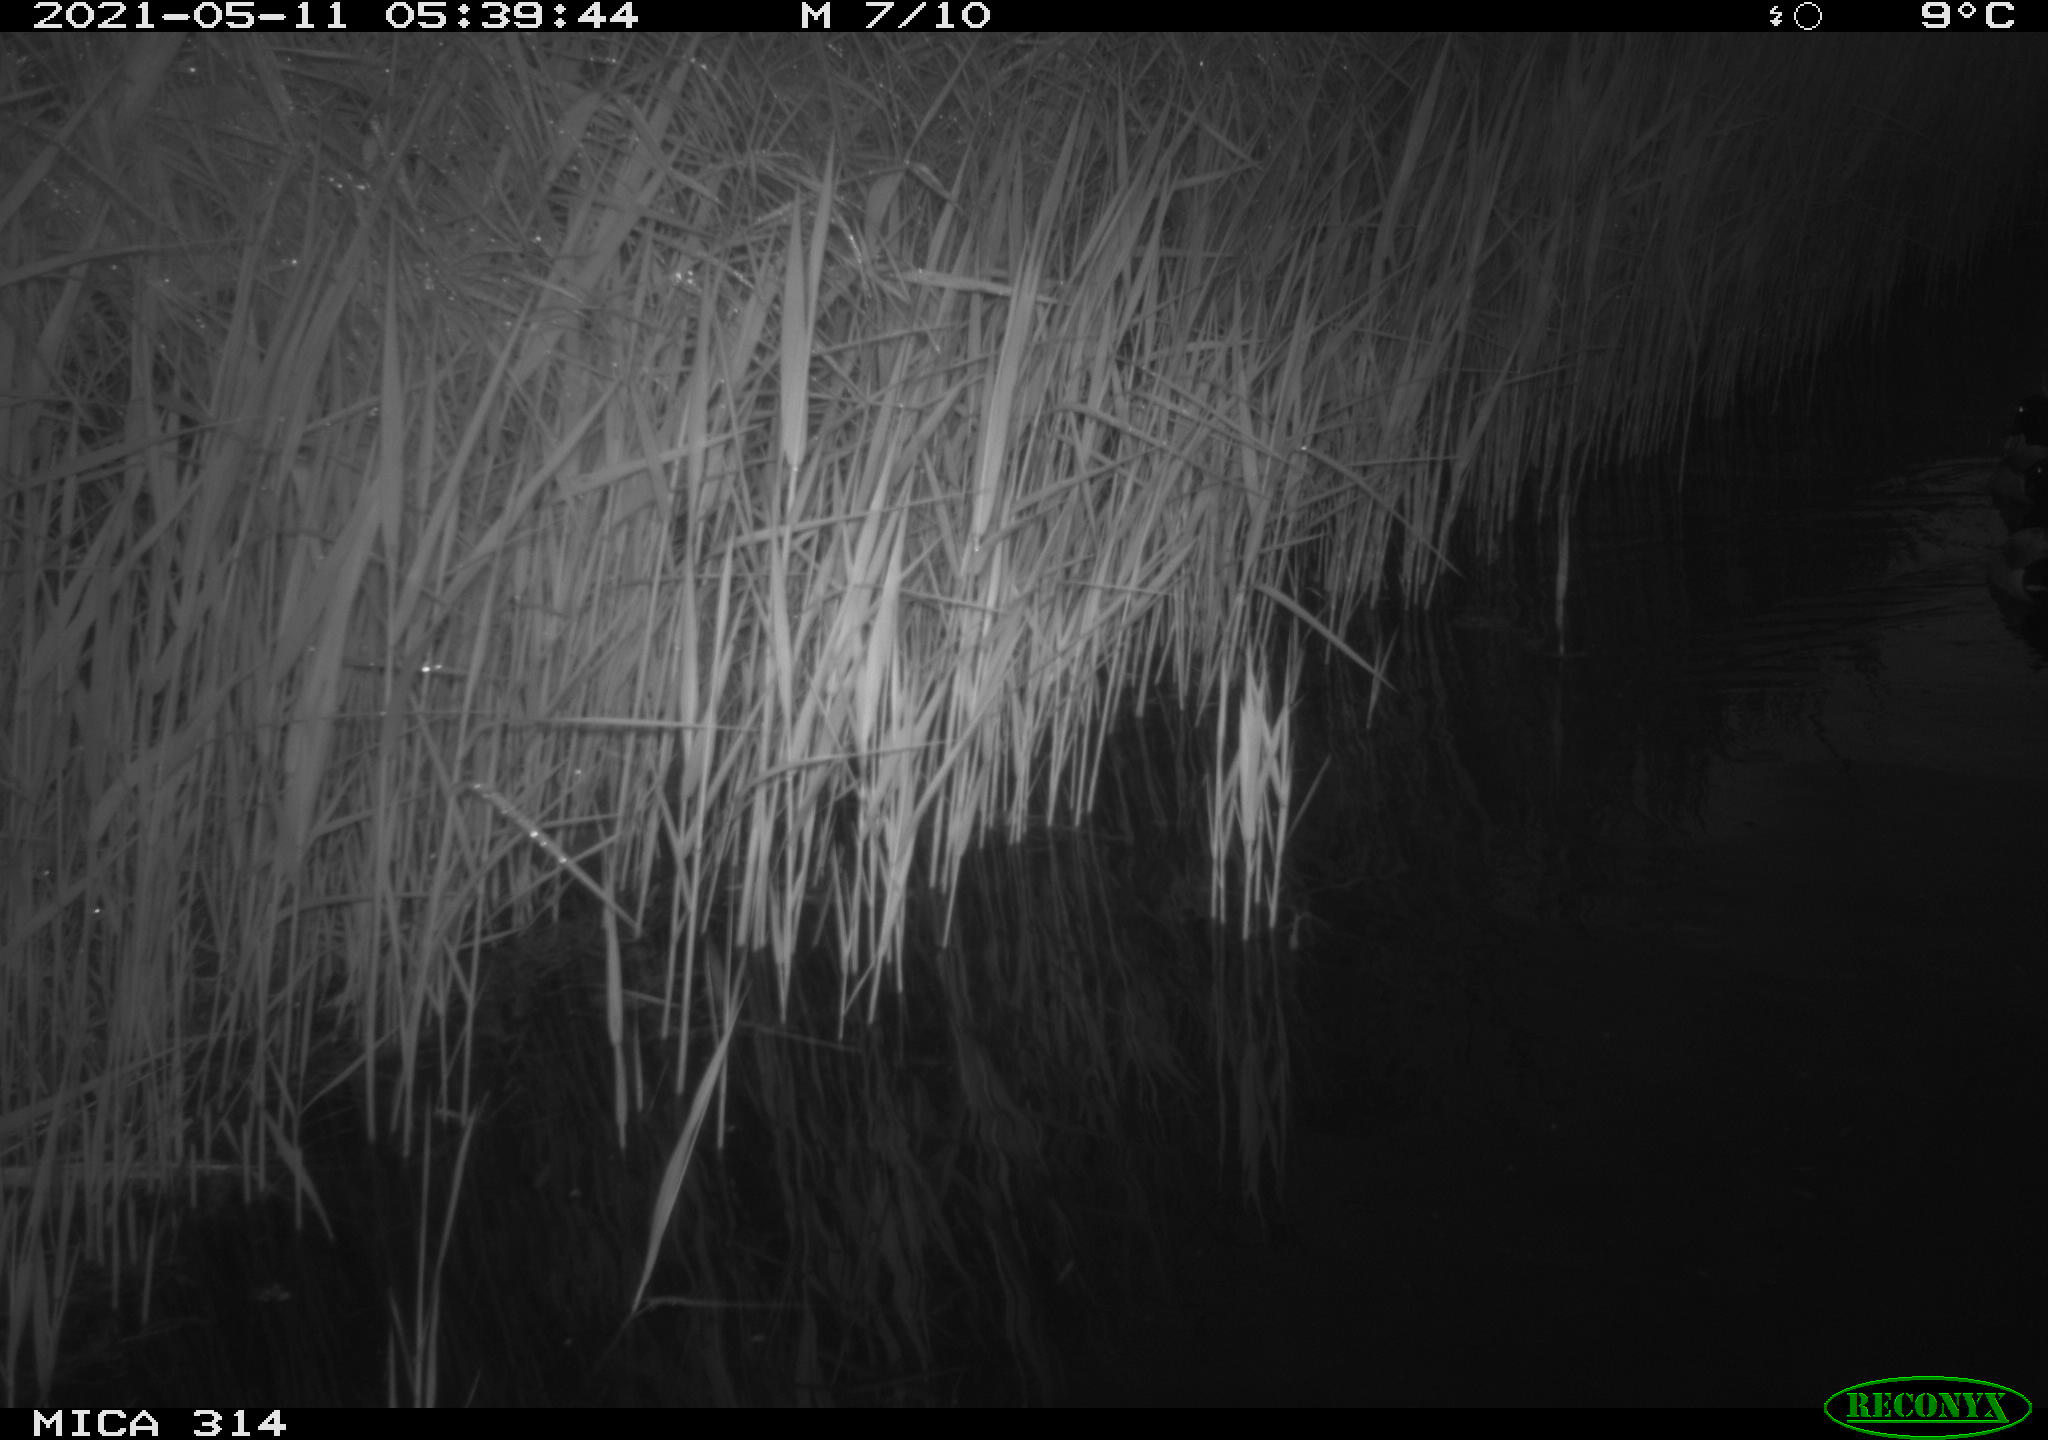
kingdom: Animalia
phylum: Chordata
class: Aves
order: Anseriformes
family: Anatidae
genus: Anas
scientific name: Anas platyrhynchos
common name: Mallard
